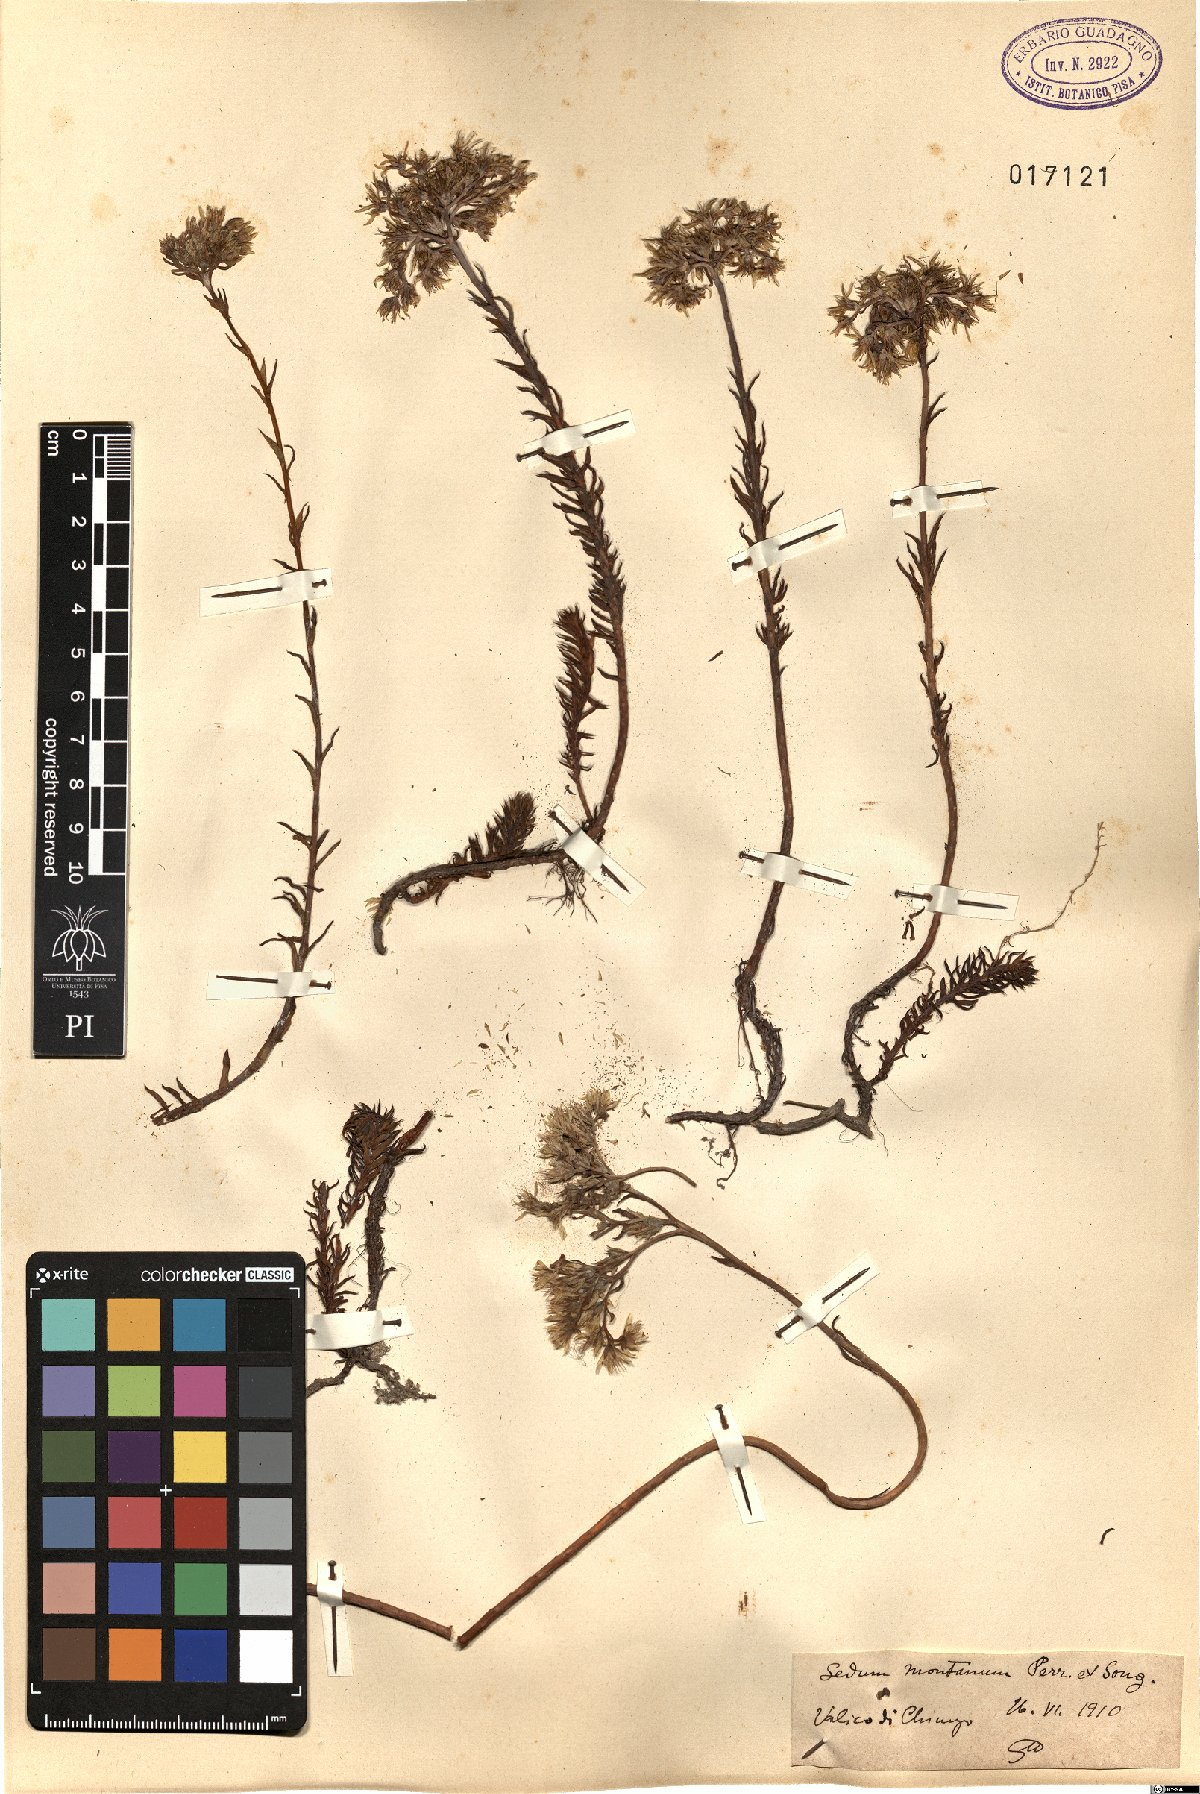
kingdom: Plantae
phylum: Tracheophyta
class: Magnoliopsida
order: Saxifragales
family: Crassulaceae
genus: Petrosedum
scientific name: Petrosedum montanum
